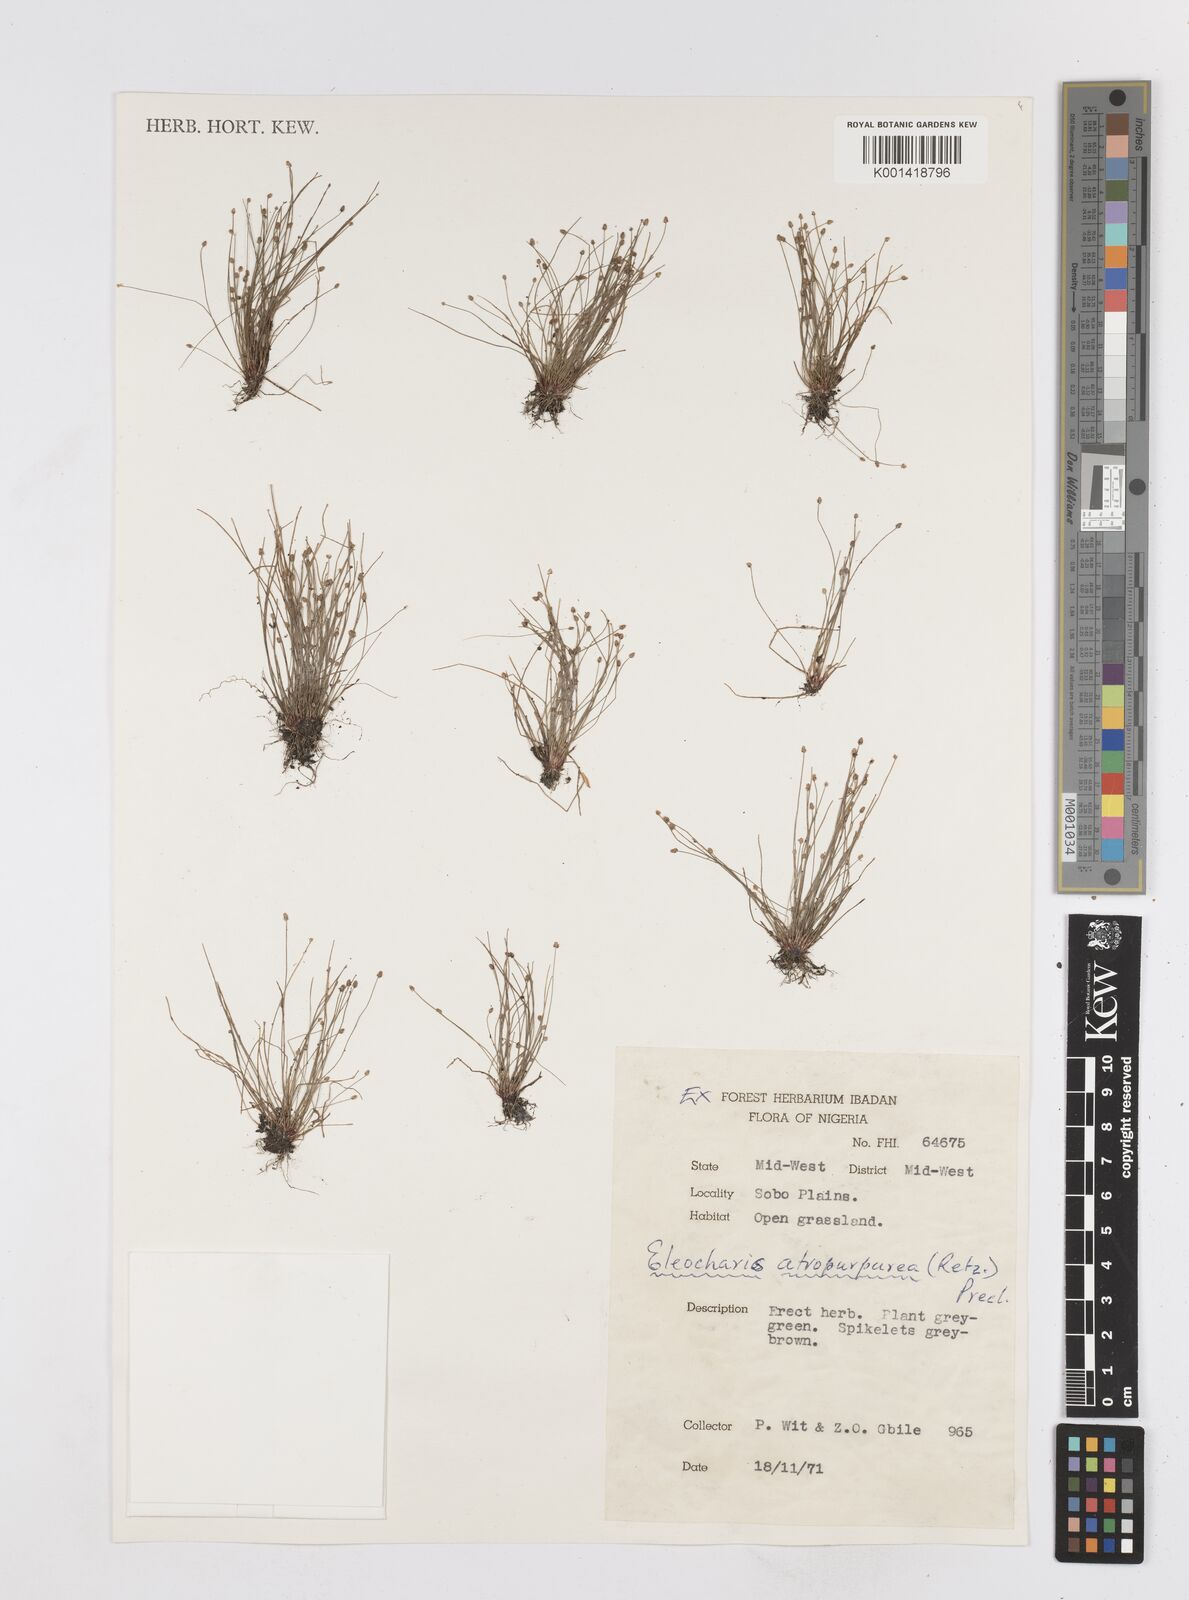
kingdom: Plantae
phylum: Tracheophyta
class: Liliopsida
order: Poales
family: Cyperaceae
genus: Eleocharis
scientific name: Eleocharis atropurpurea
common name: Purple spikerush
